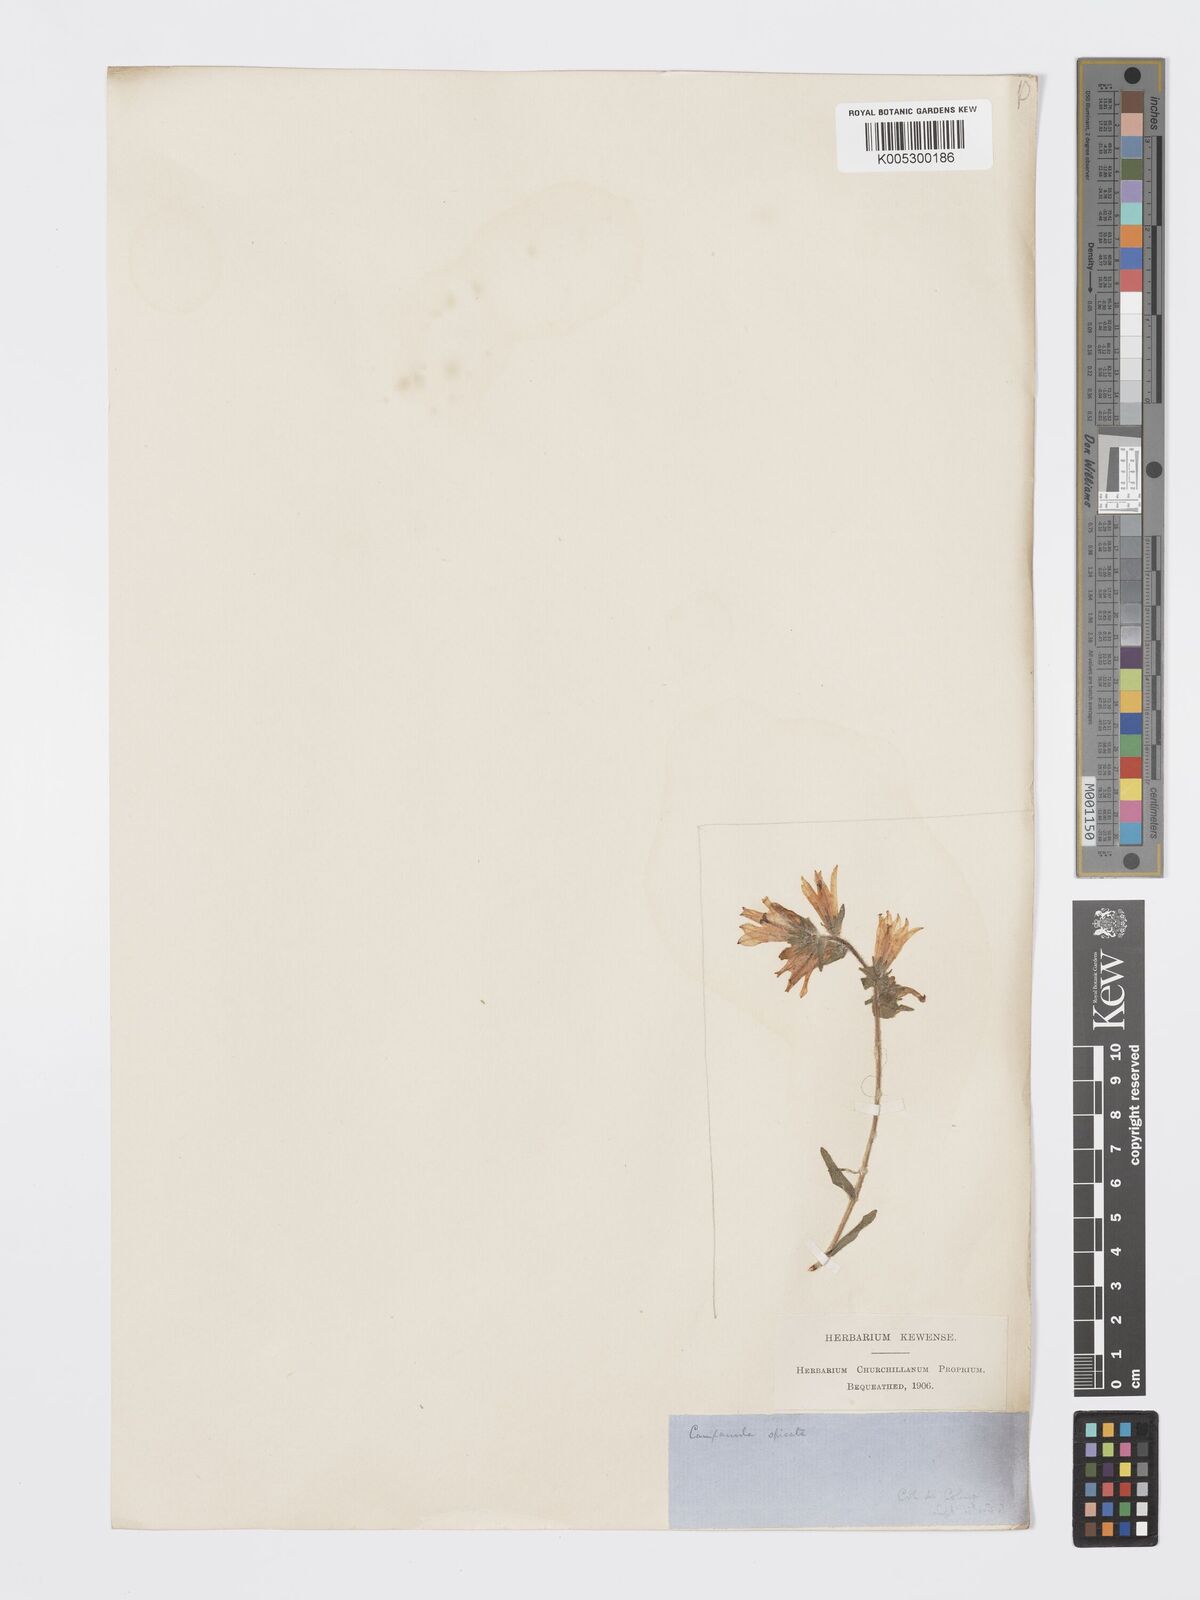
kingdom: Plantae
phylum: Tracheophyta
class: Magnoliopsida
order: Asterales
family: Campanulaceae
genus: Campanula
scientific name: Campanula spicata
